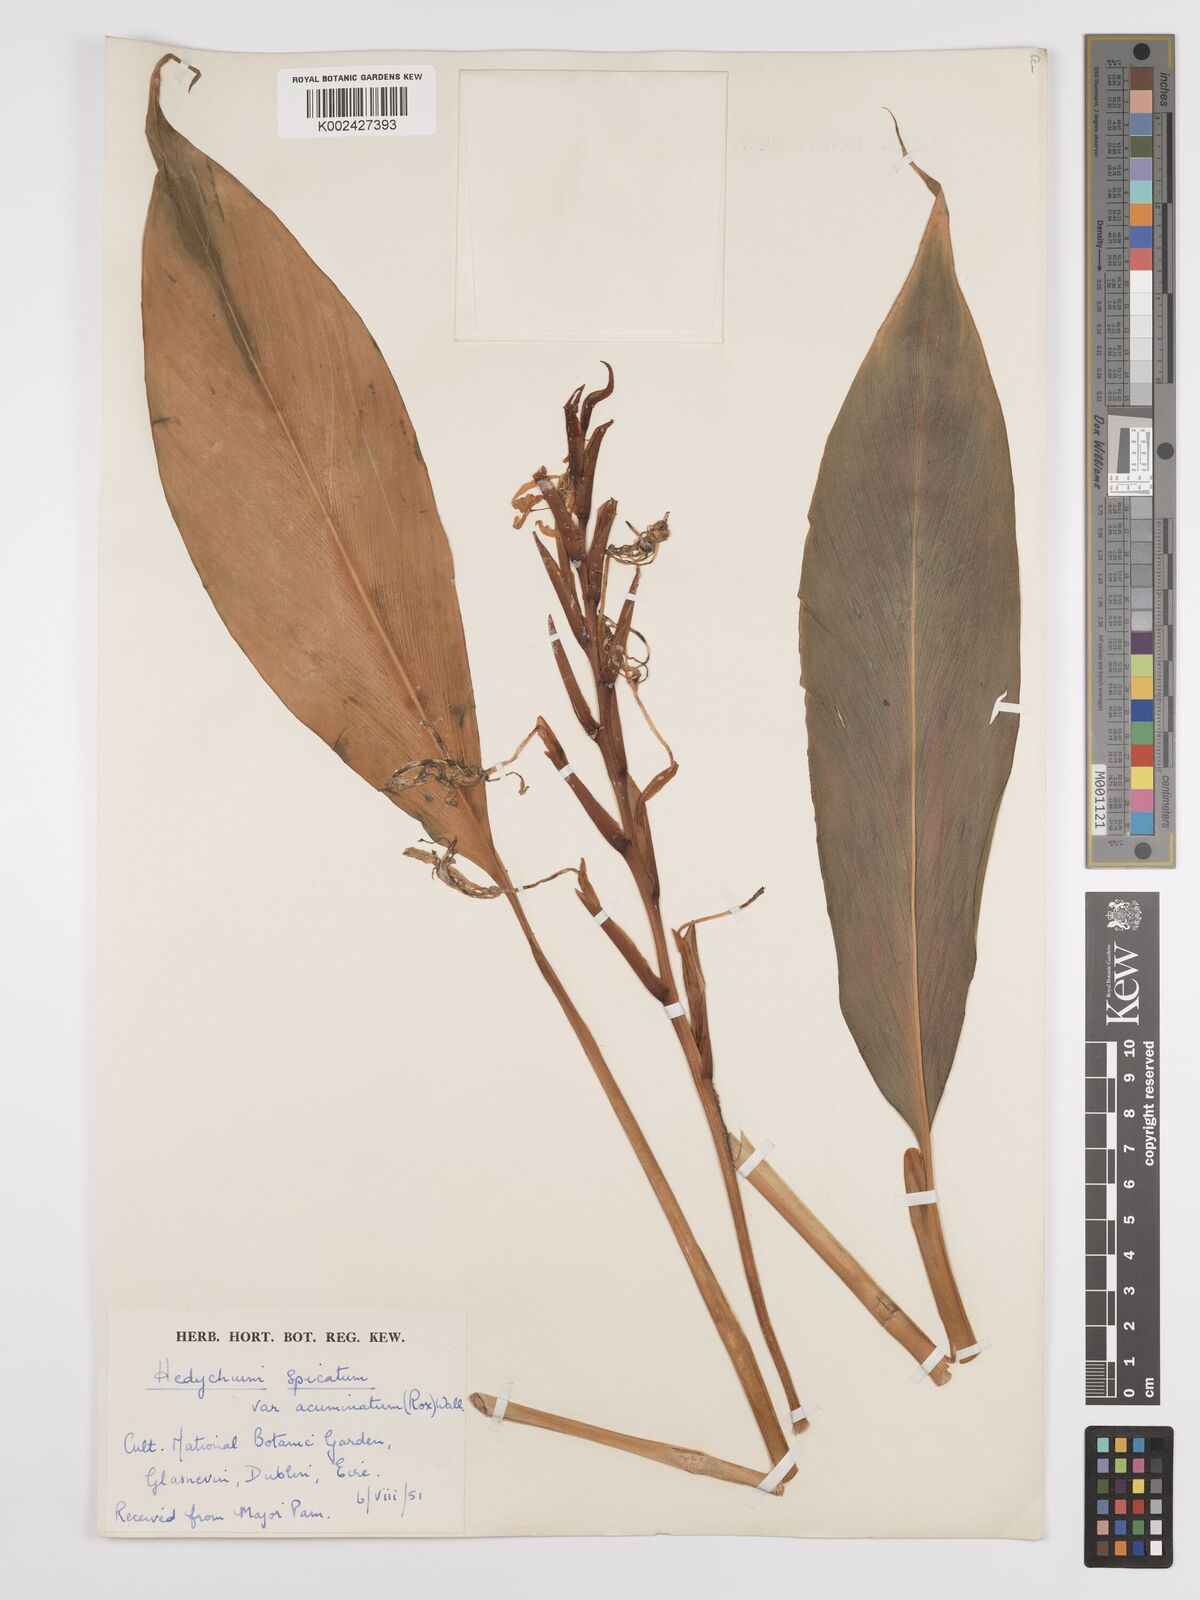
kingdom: Plantae
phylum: Tracheophyta
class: Liliopsida
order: Zingiberales
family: Zingiberaceae
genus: Hedychium
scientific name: Hedychium
